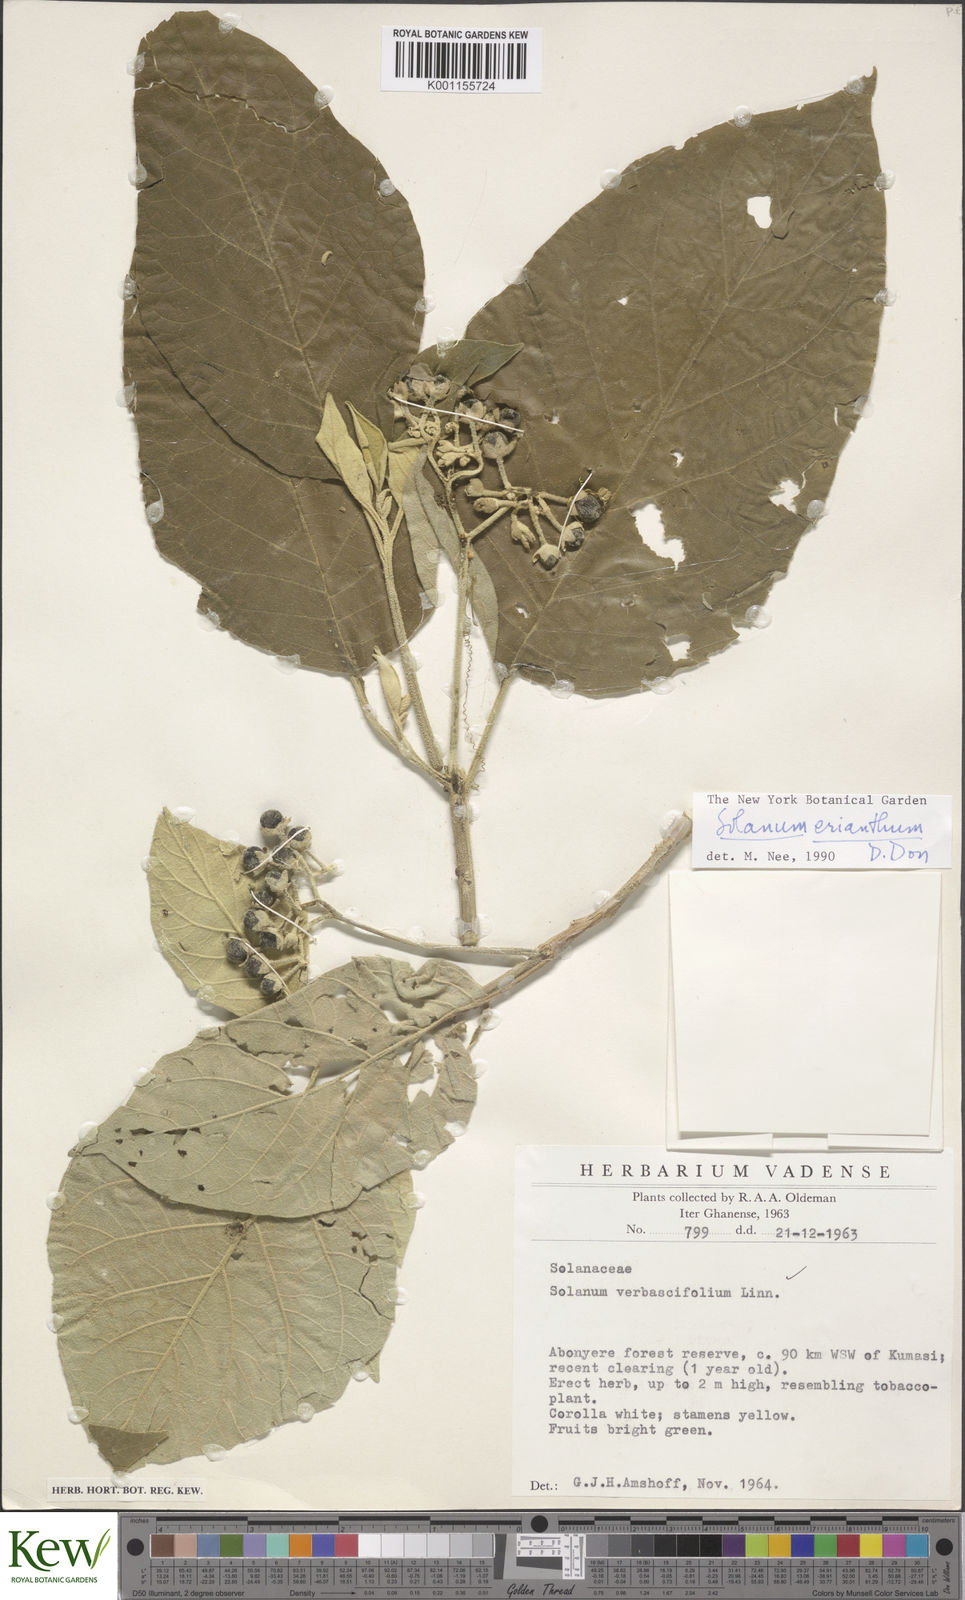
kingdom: Plantae
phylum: Tracheophyta
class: Magnoliopsida
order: Solanales
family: Solanaceae
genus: Solanum
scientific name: Solanum erianthum
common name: Tobacco-tree
